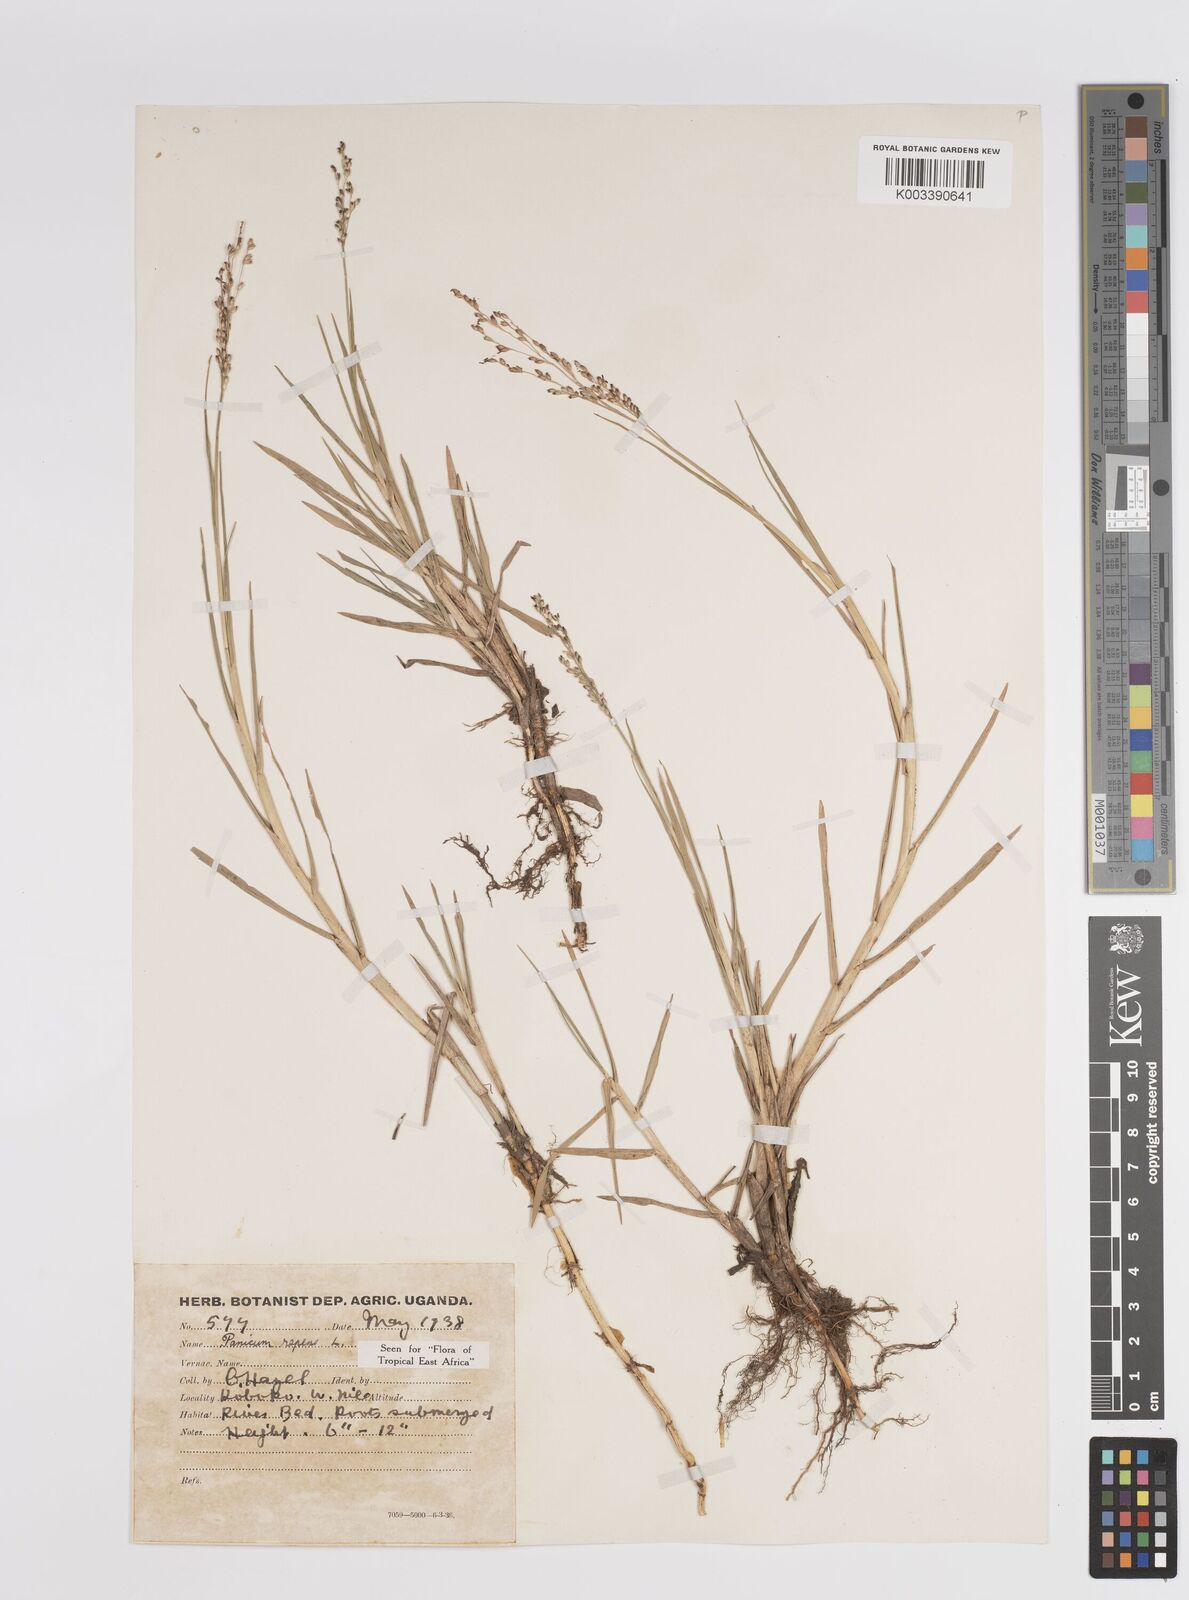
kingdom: Plantae
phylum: Tracheophyta
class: Liliopsida
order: Poales
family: Poaceae
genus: Panicum
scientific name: Panicum repens
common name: Torpedo grass
